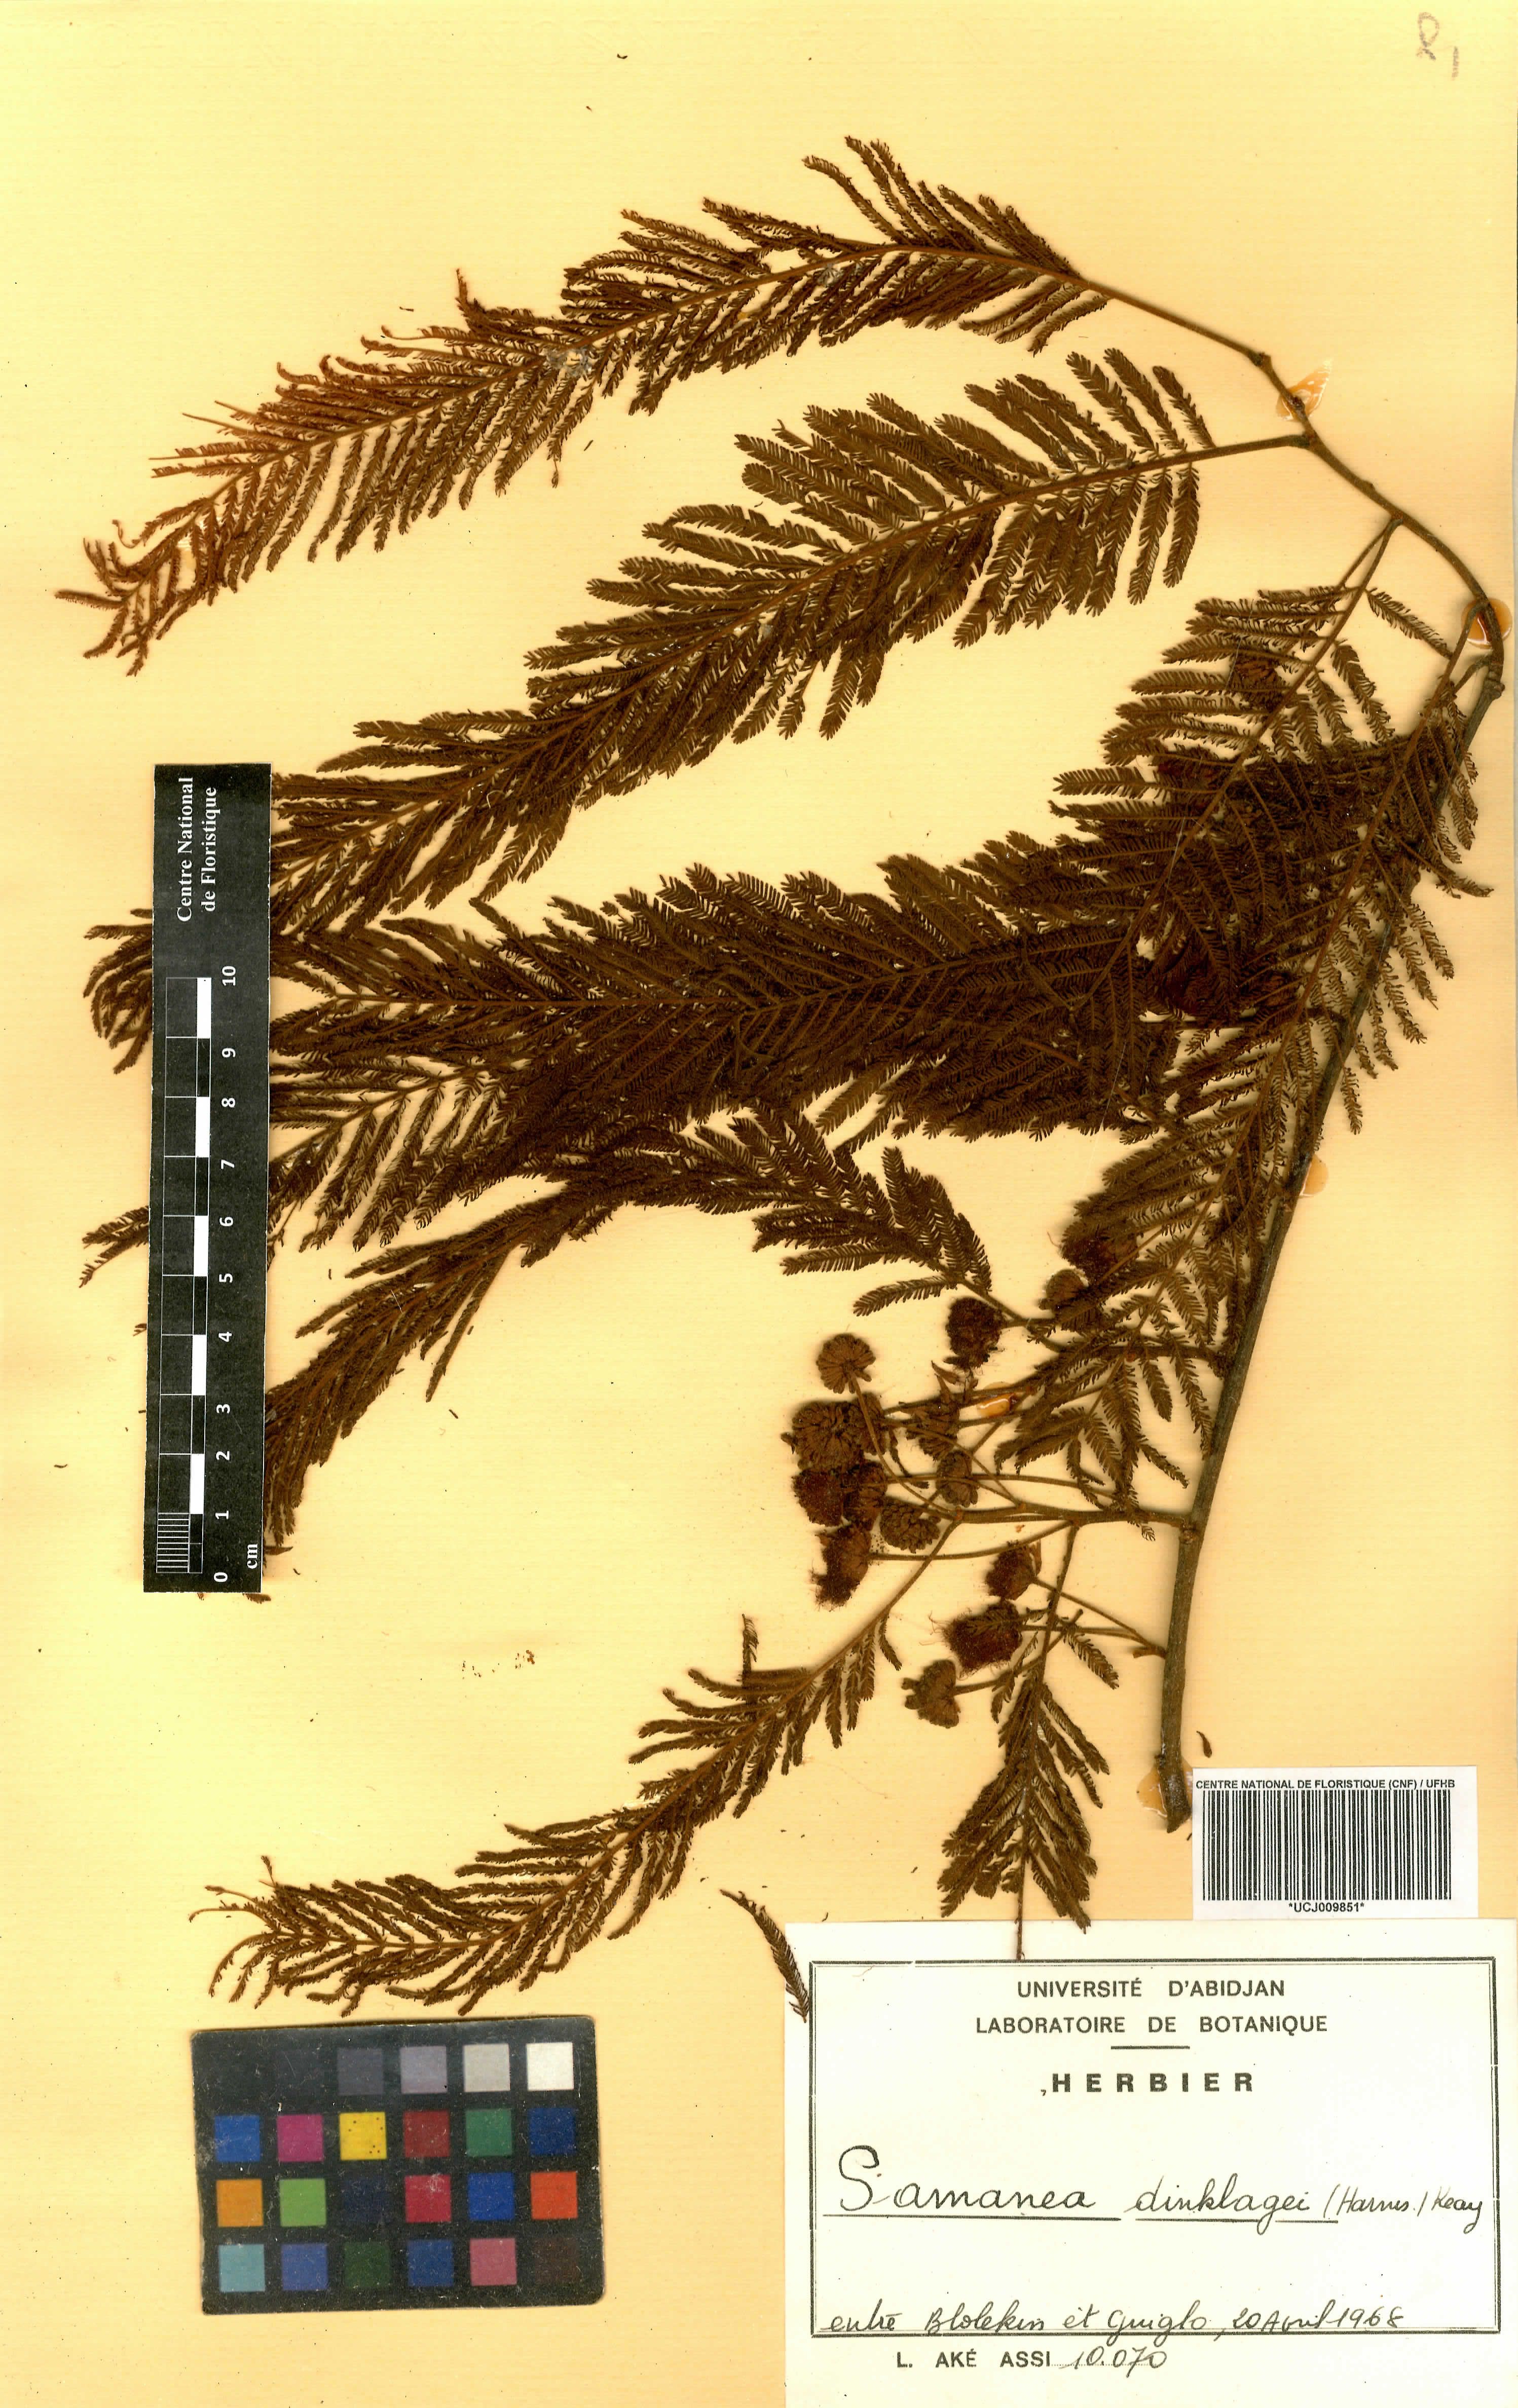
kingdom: Plantae
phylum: Tracheophyta
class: Magnoliopsida
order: Fabales
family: Fabaceae
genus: Albizia
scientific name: Albizia dinklagei
